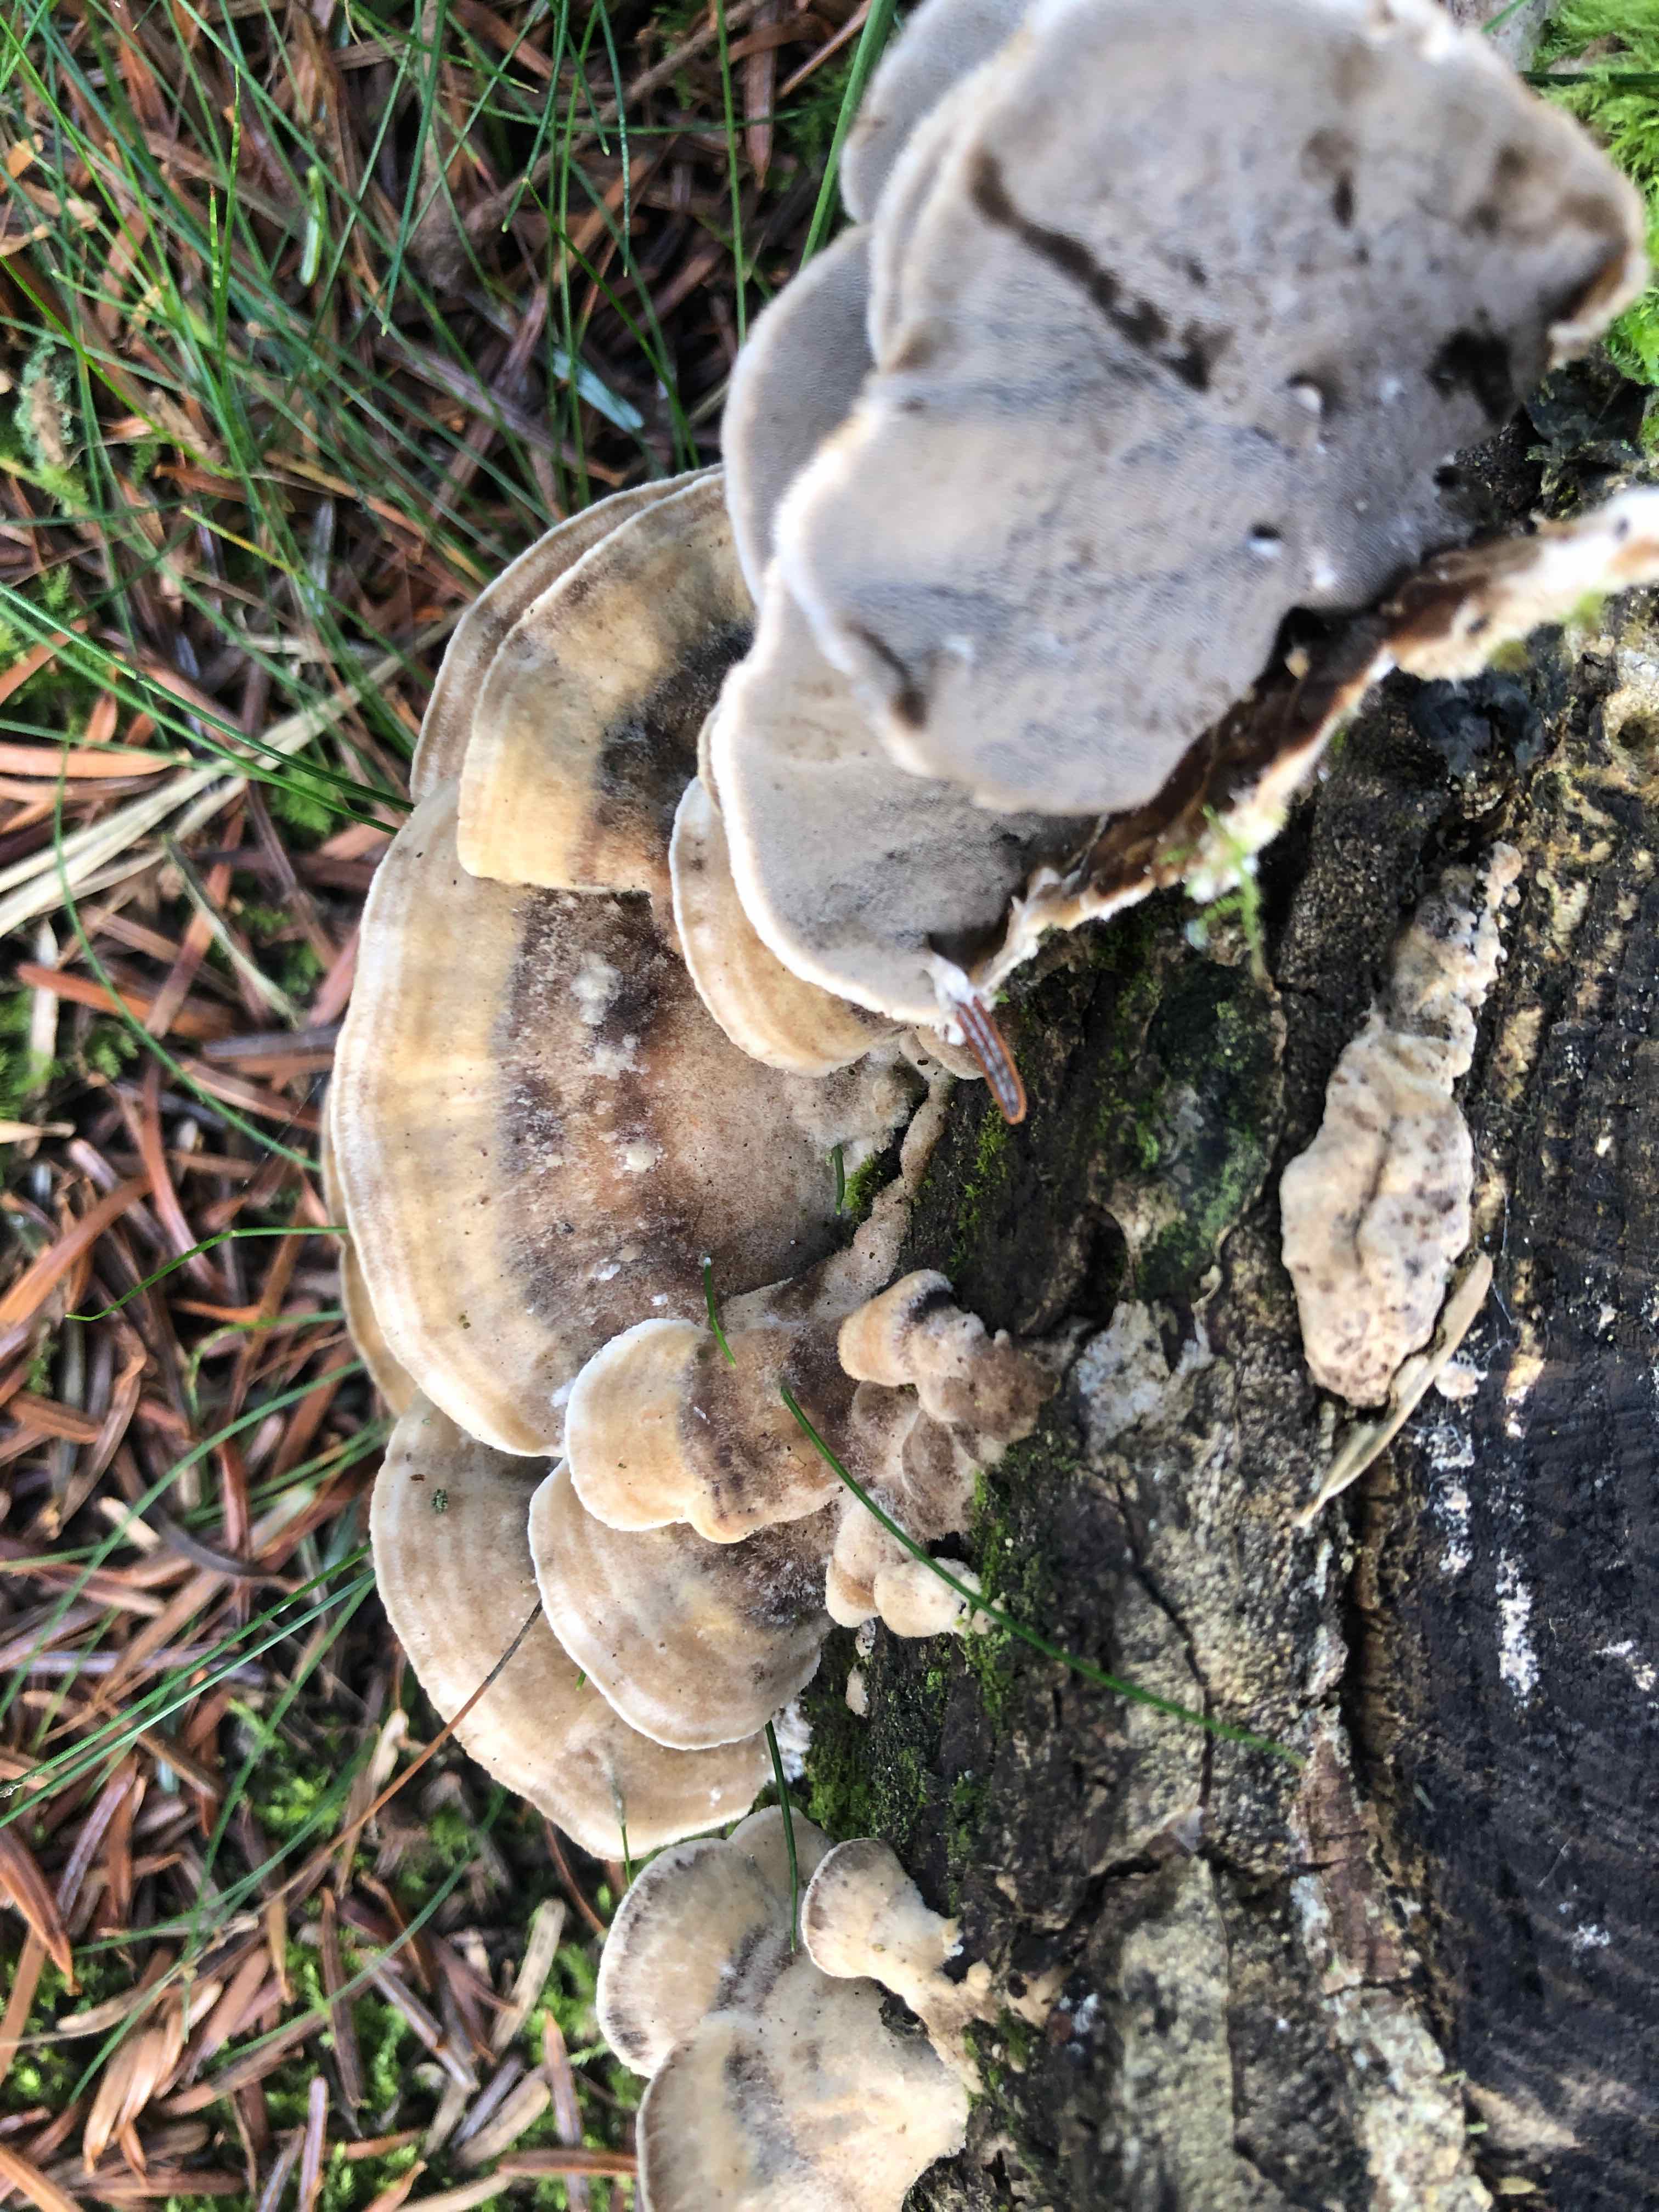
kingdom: Fungi
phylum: Basidiomycota
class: Agaricomycetes
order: Polyporales
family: Phanerochaetaceae
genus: Bjerkandera
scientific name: Bjerkandera adusta
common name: sveden sodporesvamp
